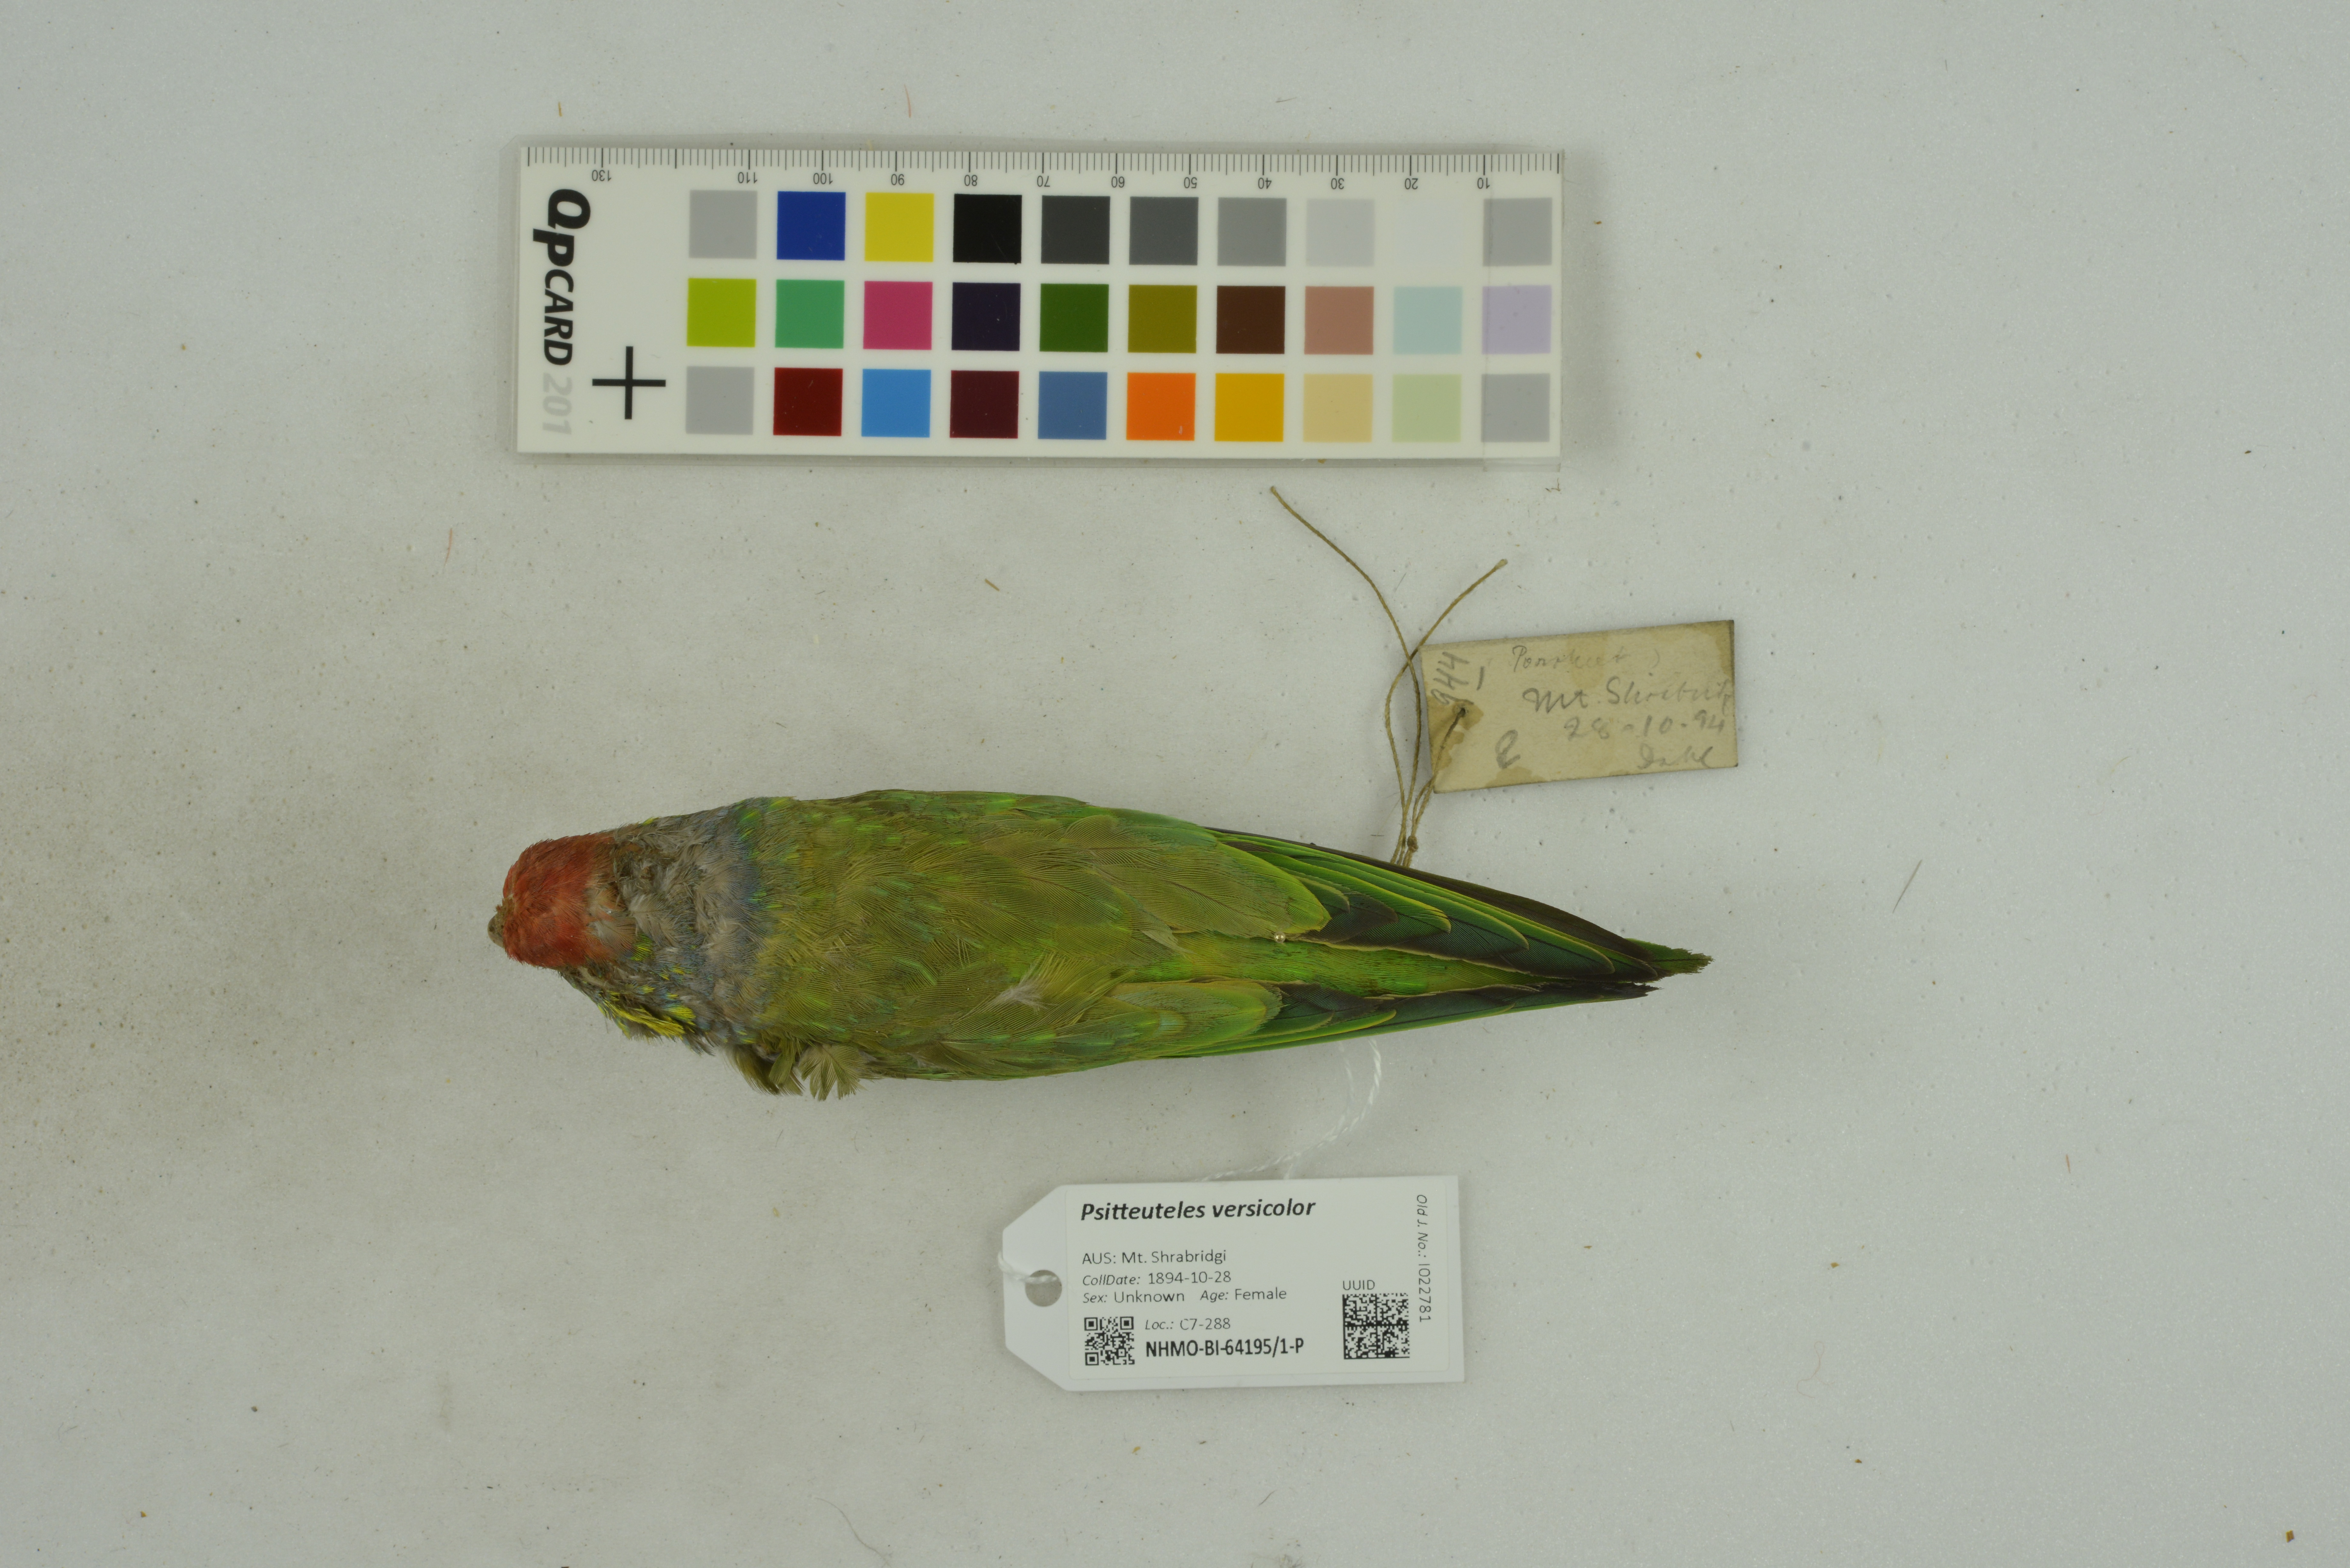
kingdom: Animalia
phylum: Chordata
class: Aves
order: Psittaciformes
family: Psittacidae
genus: Psitteuteles
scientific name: Psitteuteles versicolor
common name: Varied lorikeet
